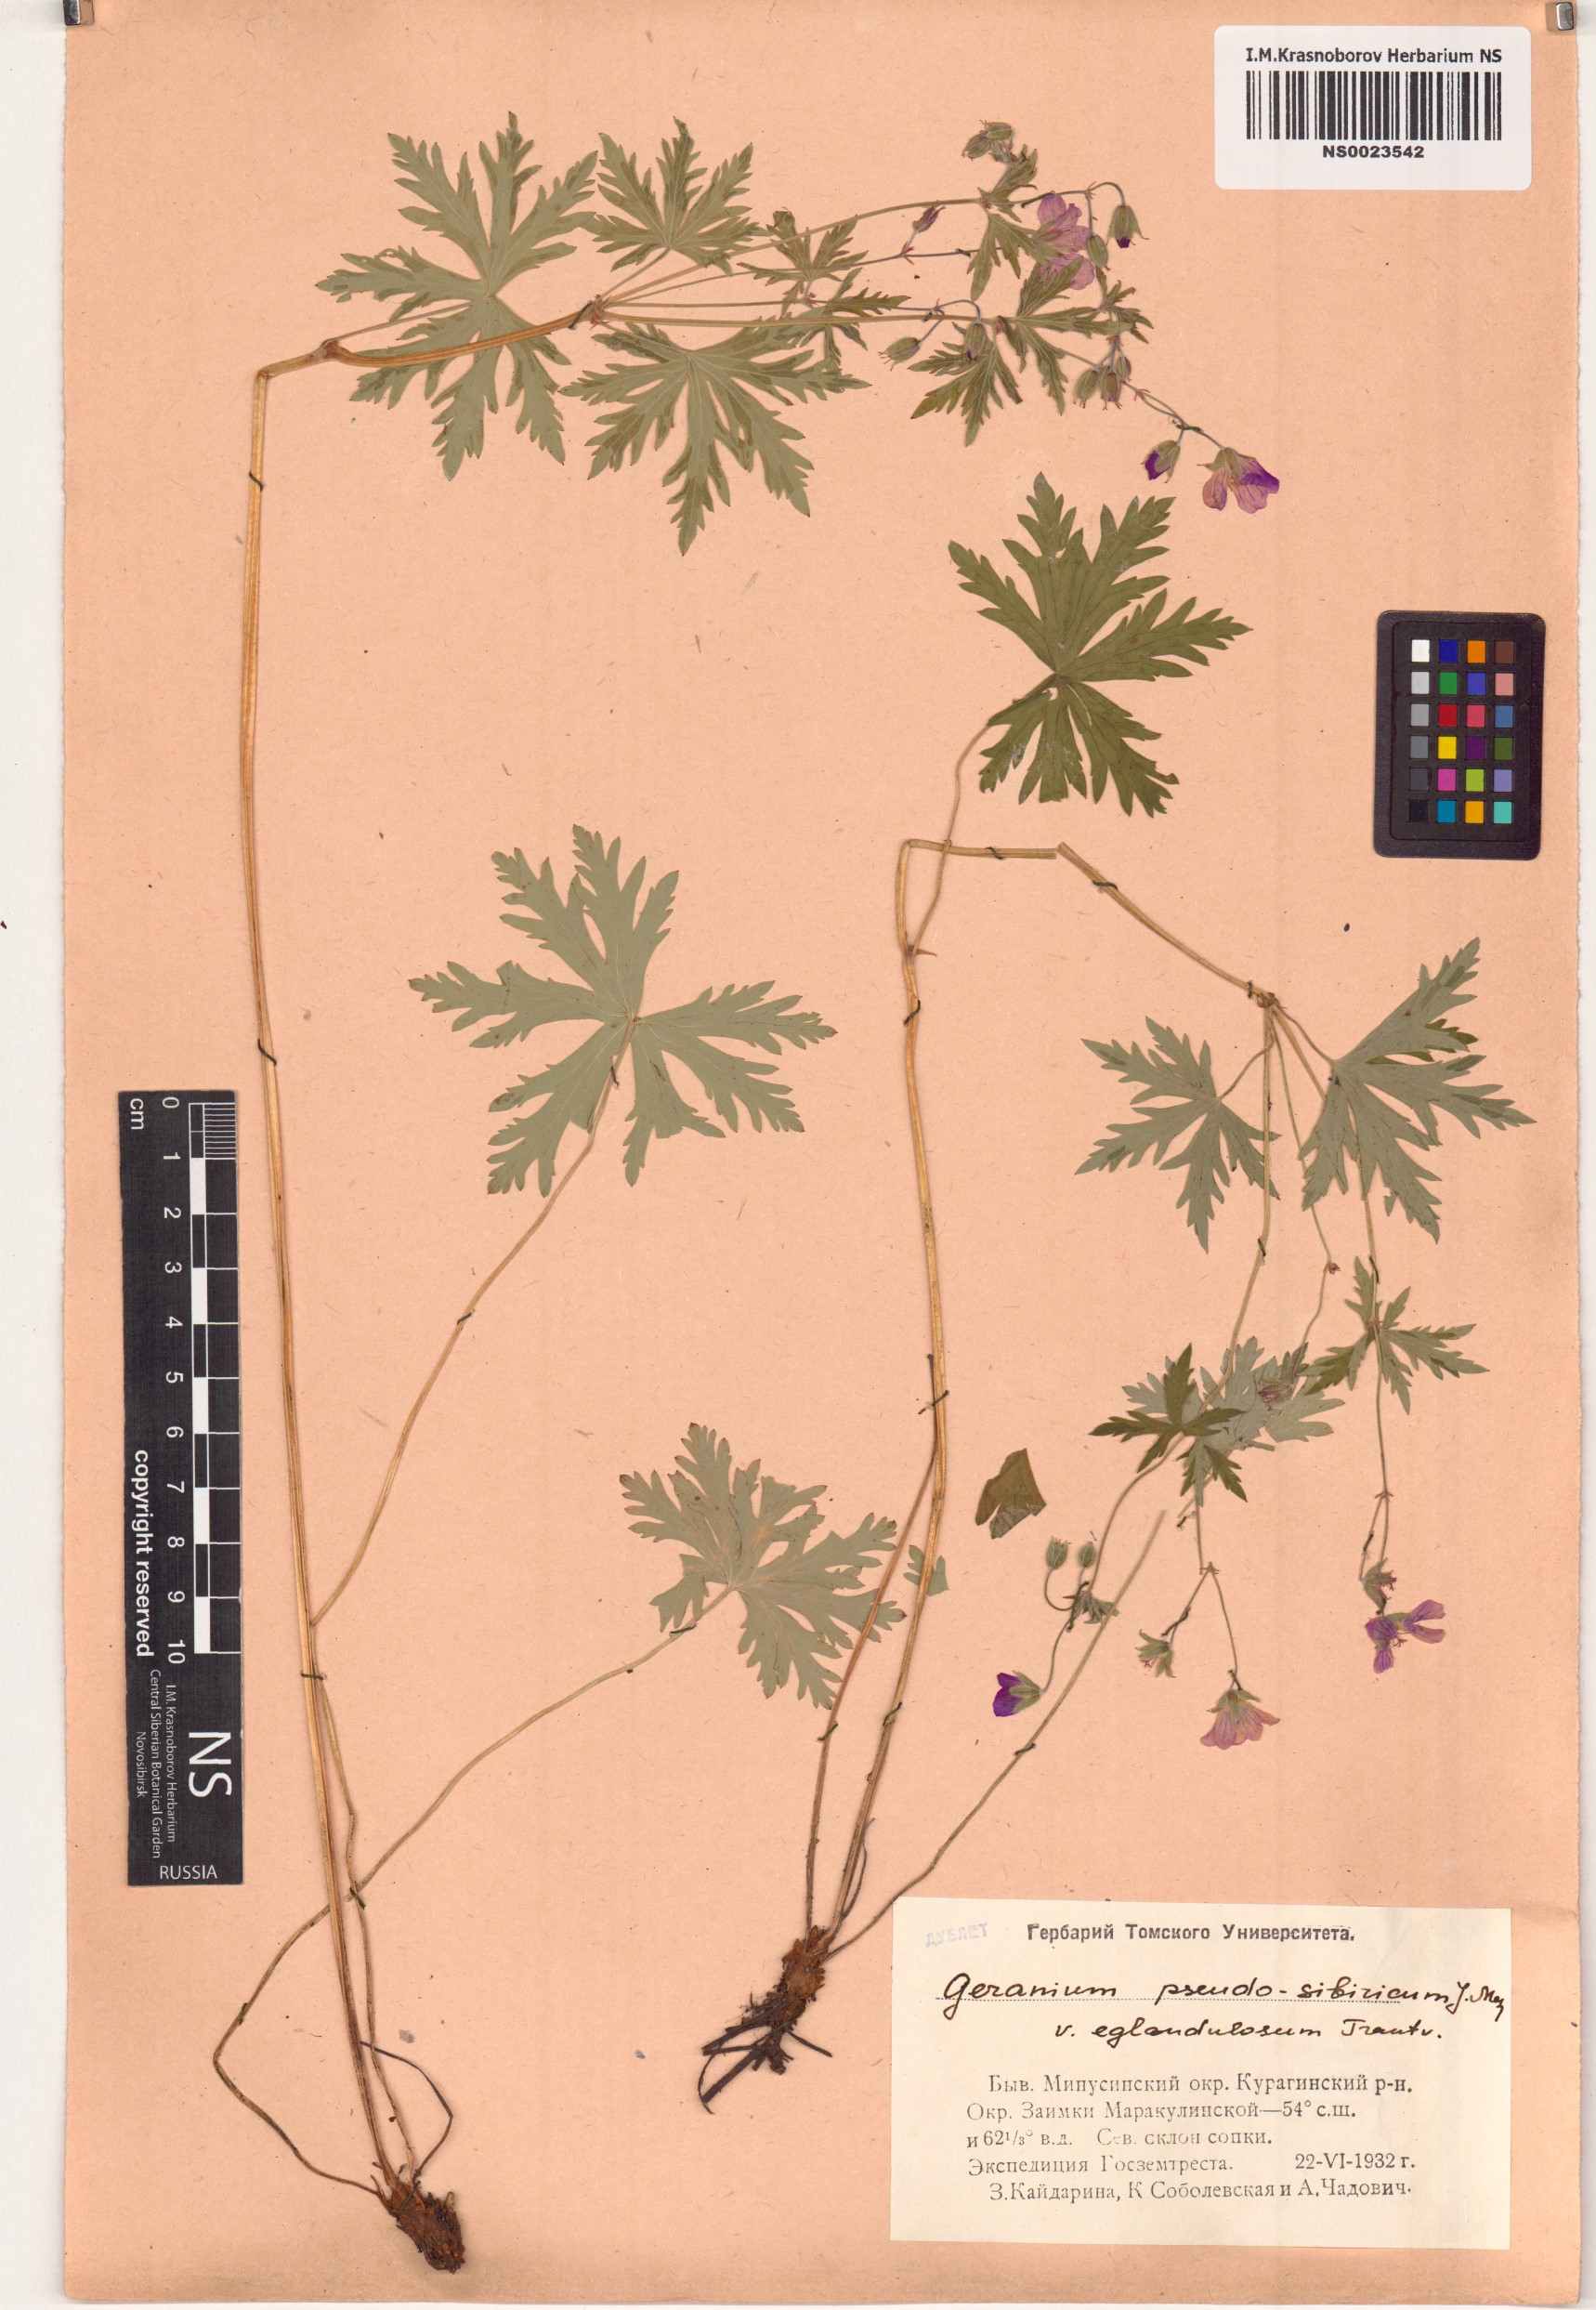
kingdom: Plantae
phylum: Tracheophyta
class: Magnoliopsida
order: Geraniales
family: Geraniaceae
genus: Geranium
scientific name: Geranium pseudosibiricum
